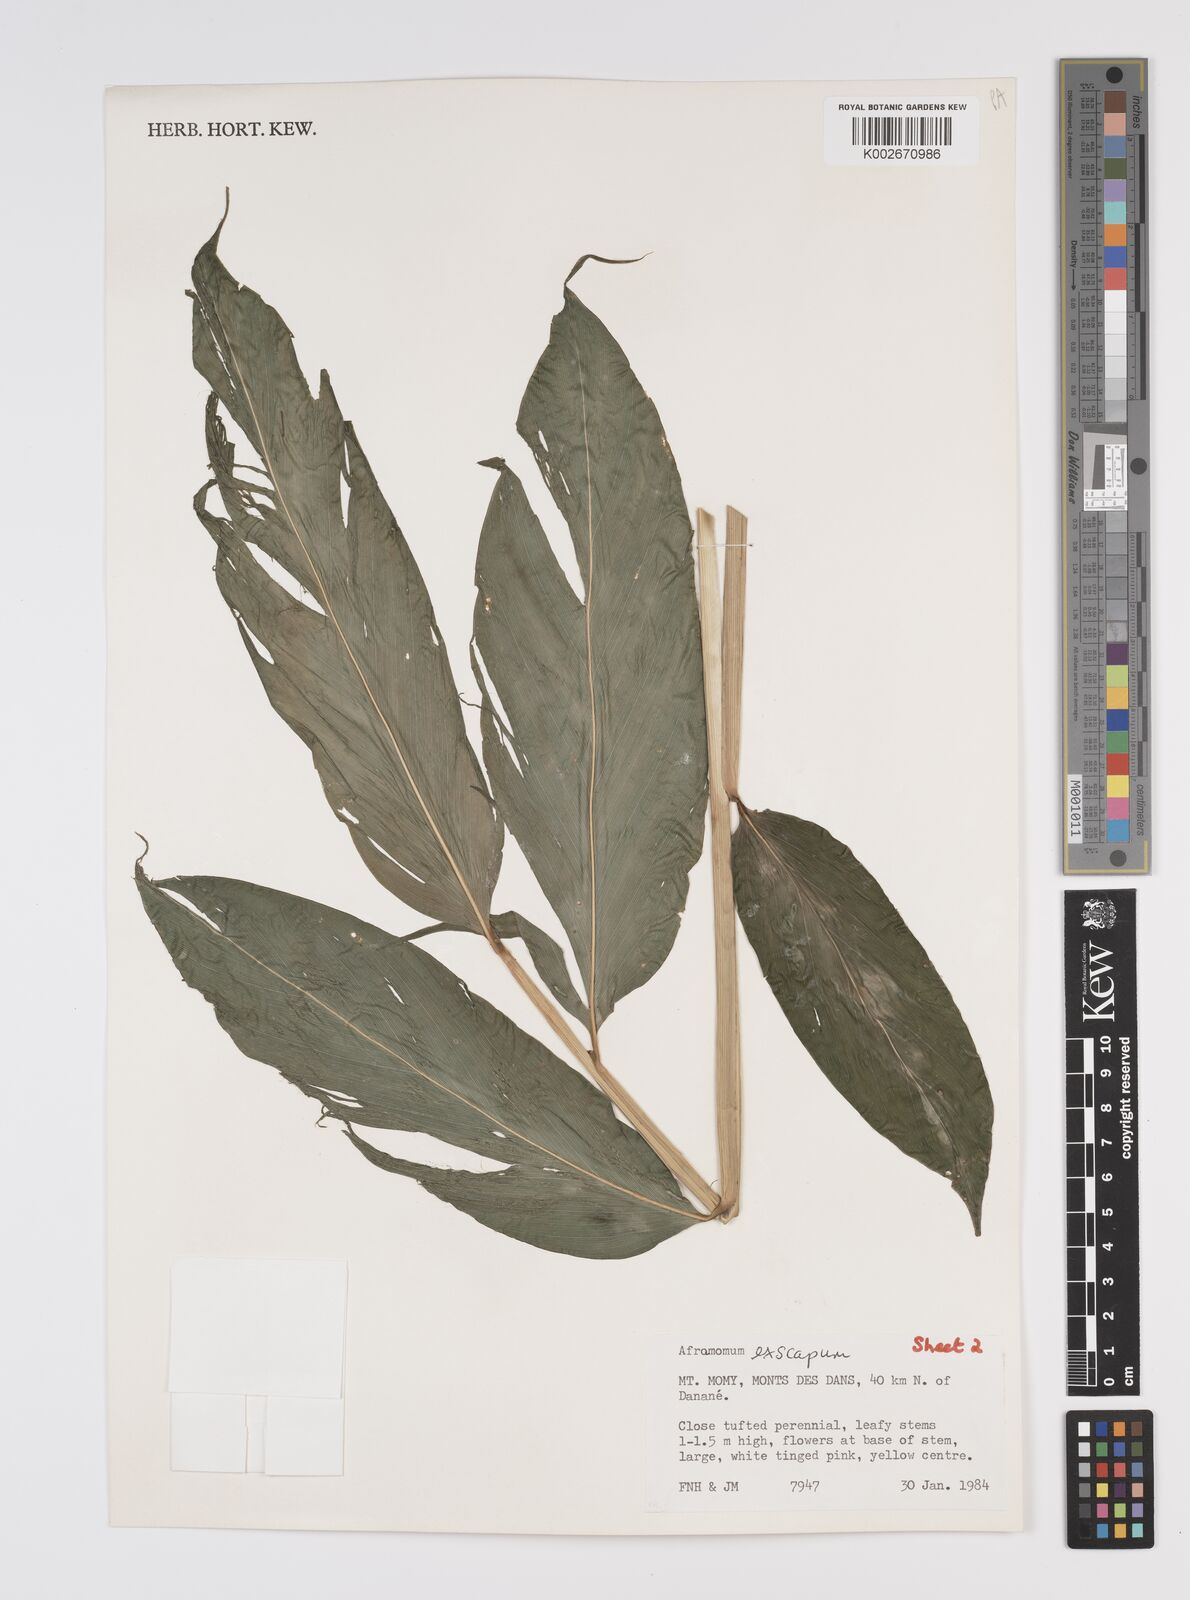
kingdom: Plantae
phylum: Tracheophyta
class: Liliopsida
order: Zingiberales
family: Zingiberaceae
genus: Aframomum
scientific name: Aframomum exscapum
